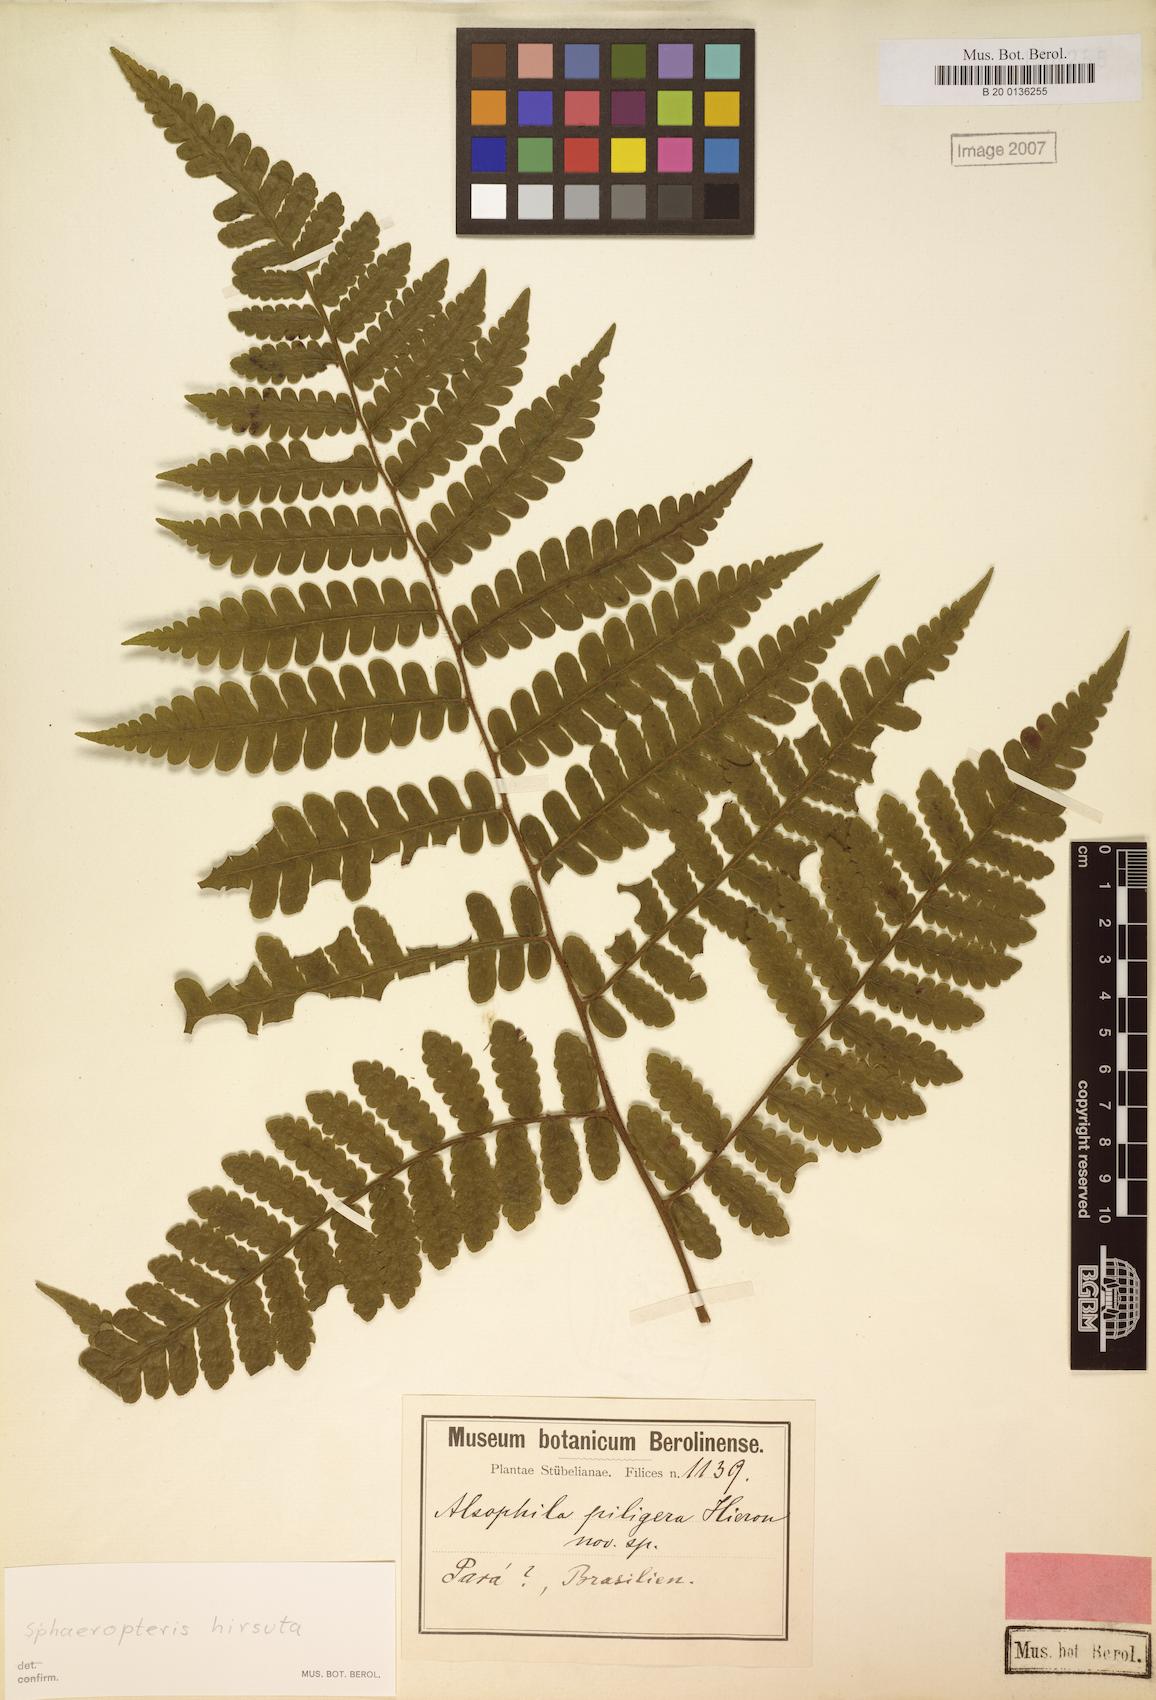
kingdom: Plantae
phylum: Tracheophyta
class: Polypodiopsida
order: Cyatheales
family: Cyatheaceae
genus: Cyathea
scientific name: Cyathea surinamensis
